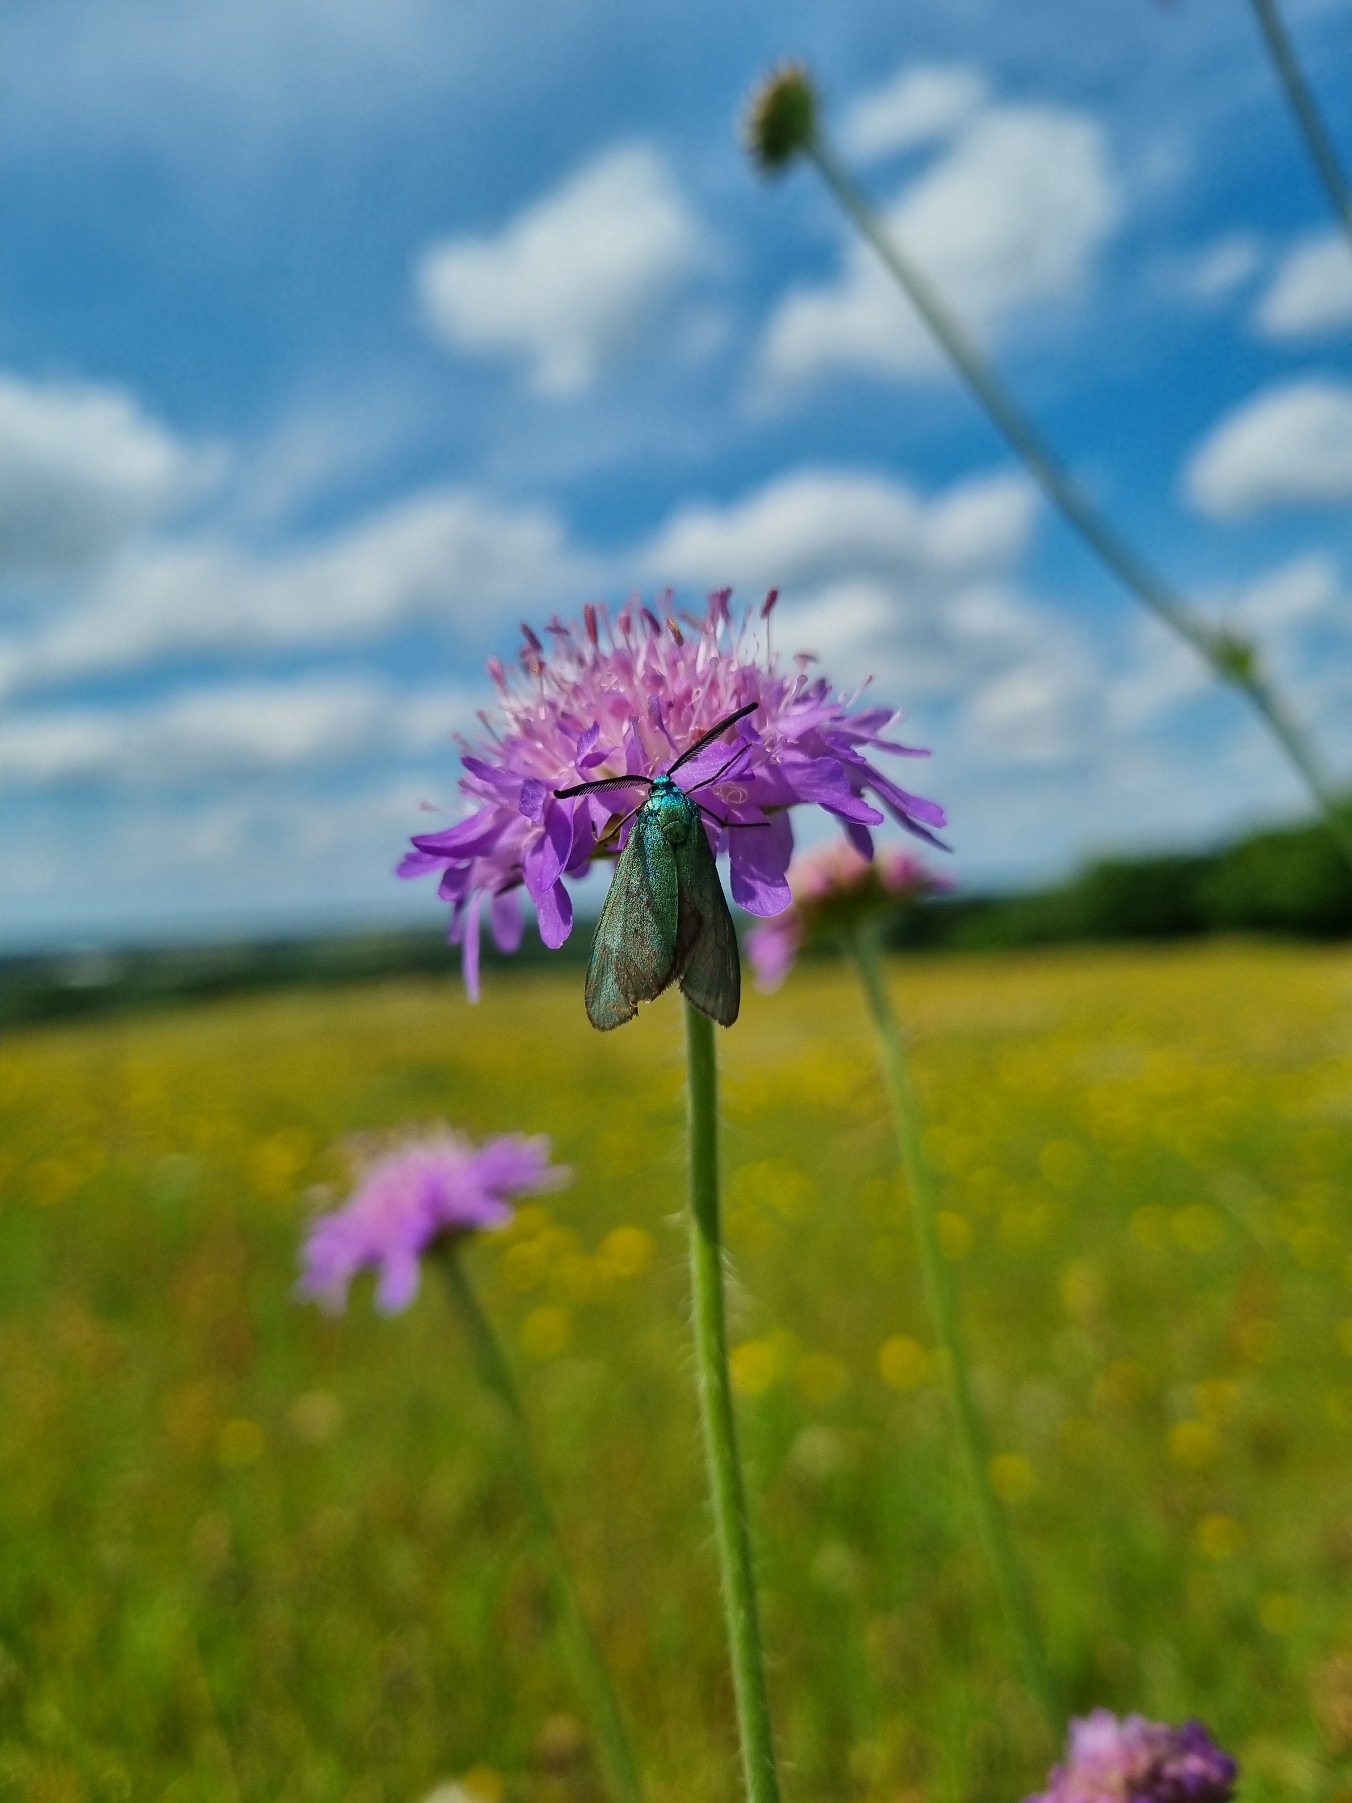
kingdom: Animalia
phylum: Arthropoda
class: Insecta
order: Lepidoptera
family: Zygaenidae
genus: Adscita
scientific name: Adscita statices
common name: Metalvinge
